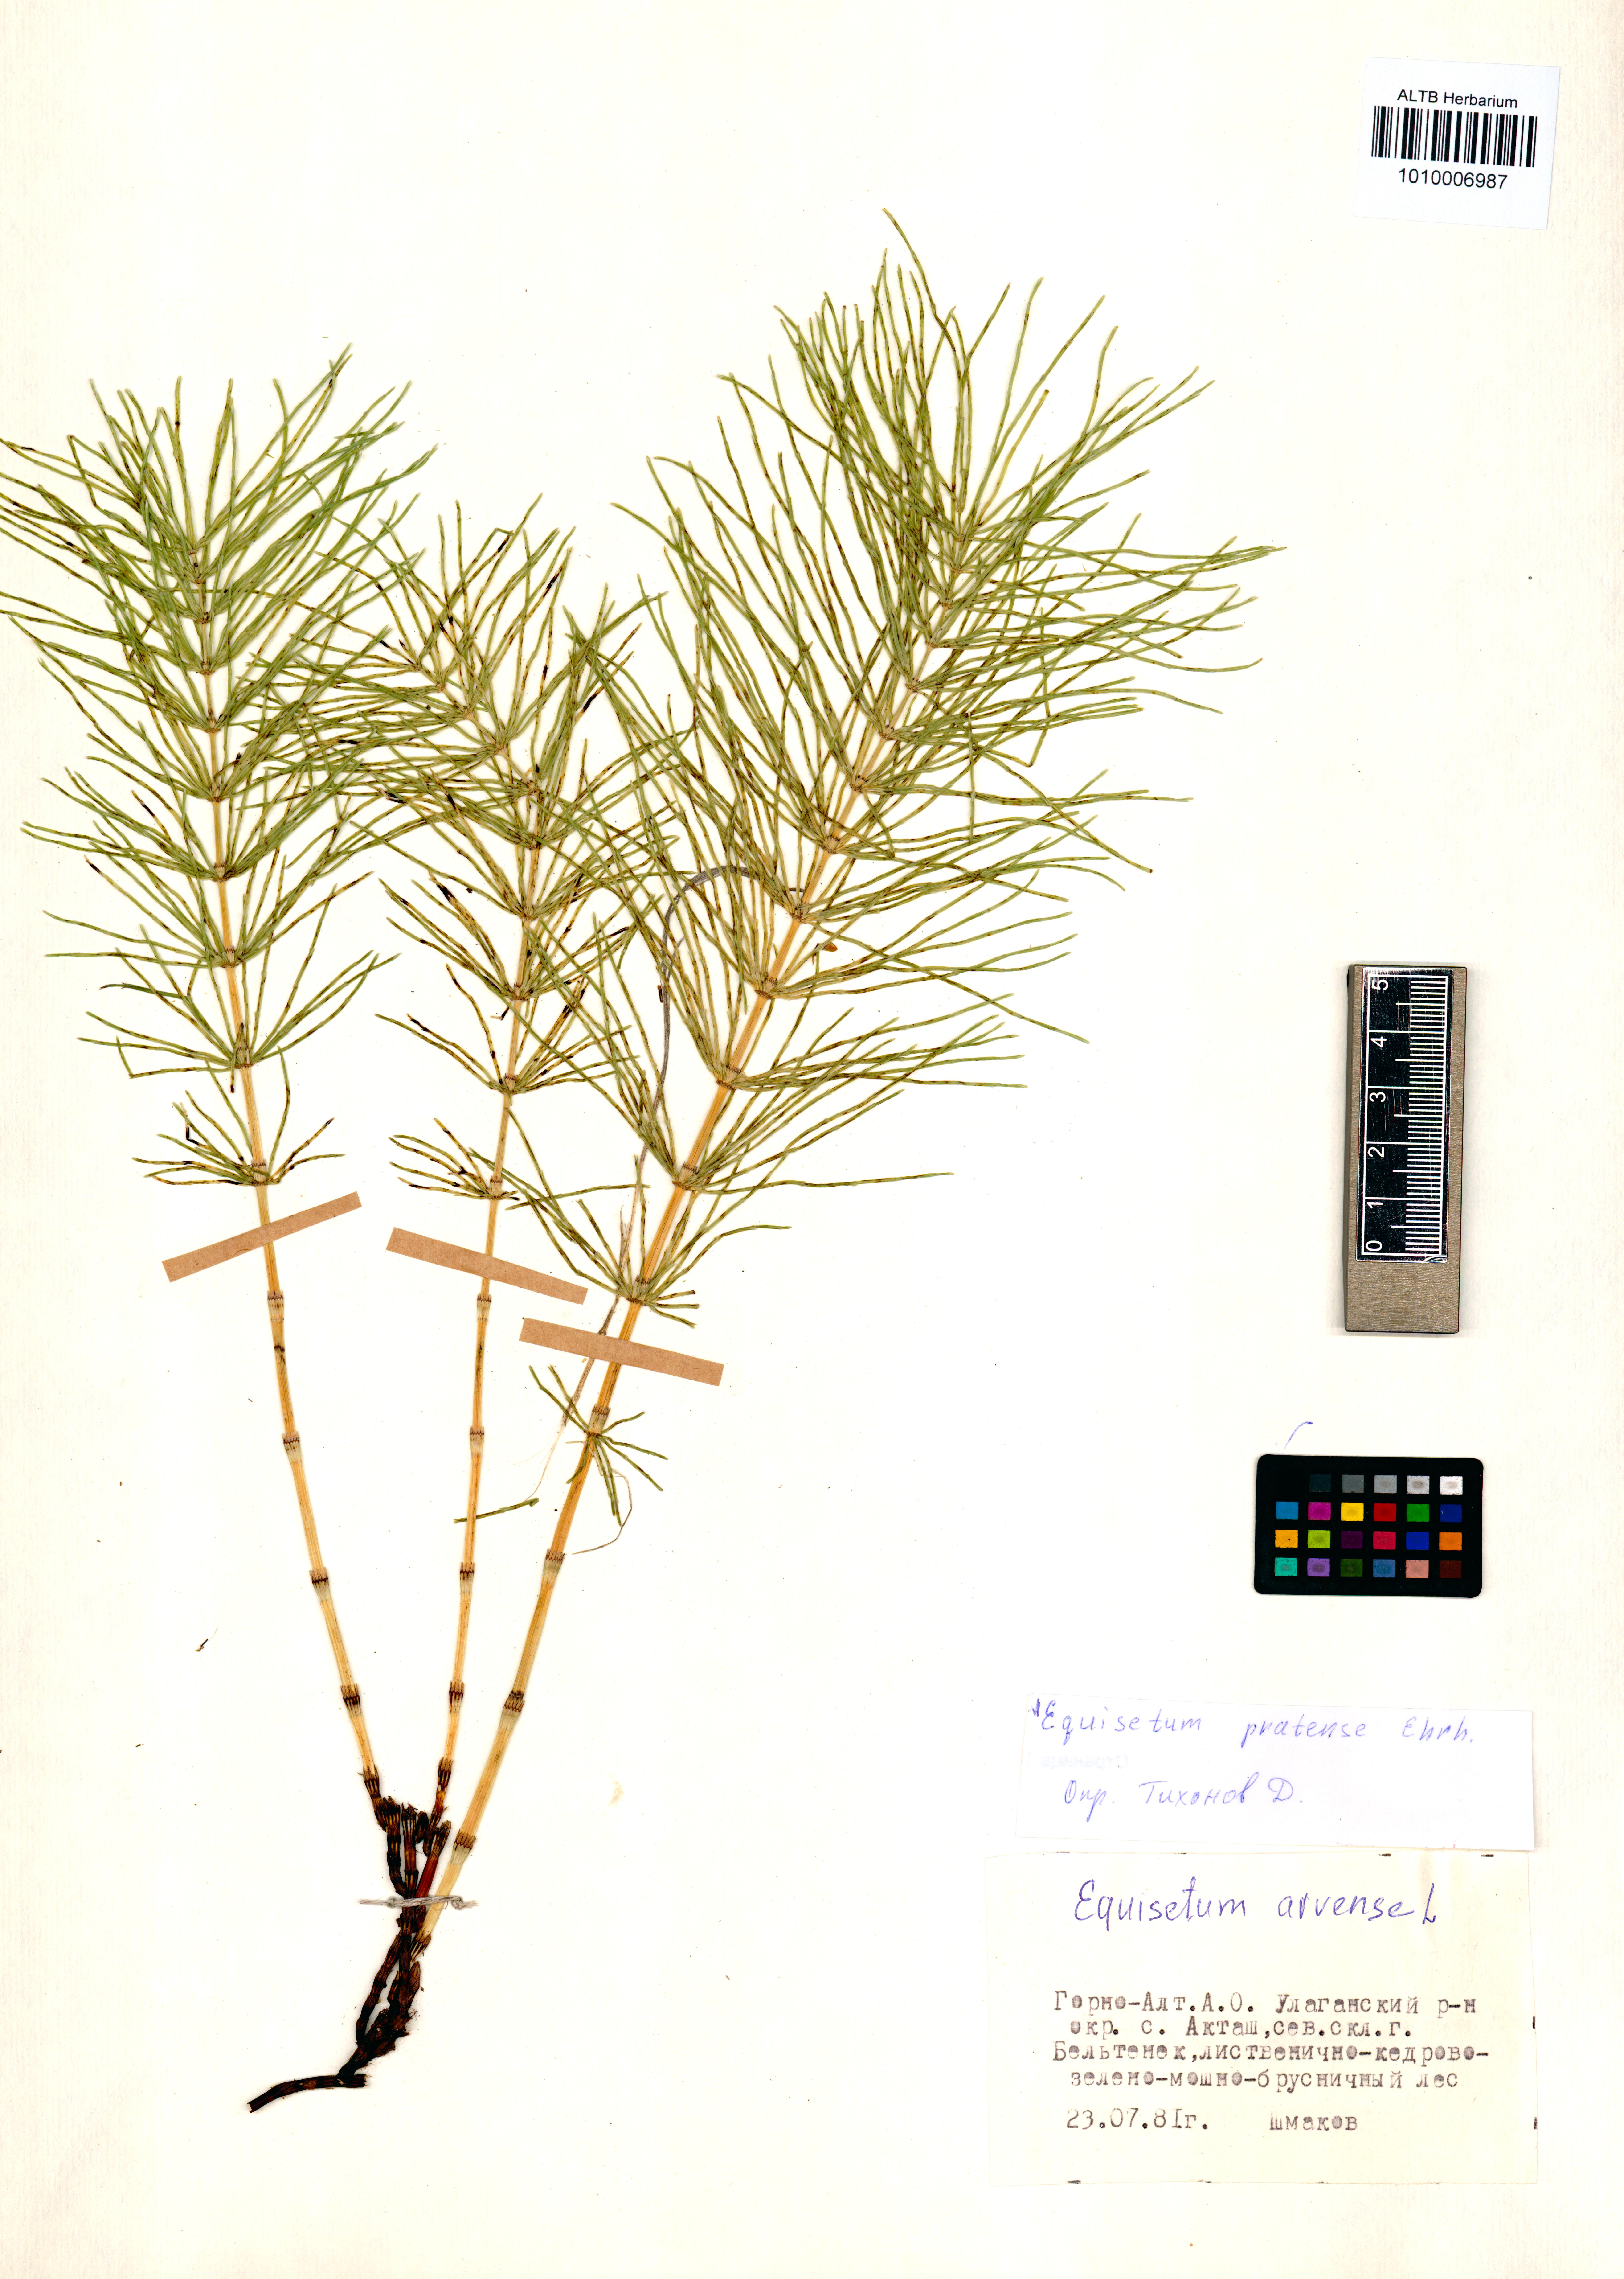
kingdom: Plantae
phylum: Tracheophyta
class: Polypodiopsida
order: Equisetales
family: Equisetaceae
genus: Equisetum
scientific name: Equisetum pratense
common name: Meadow horsetail
